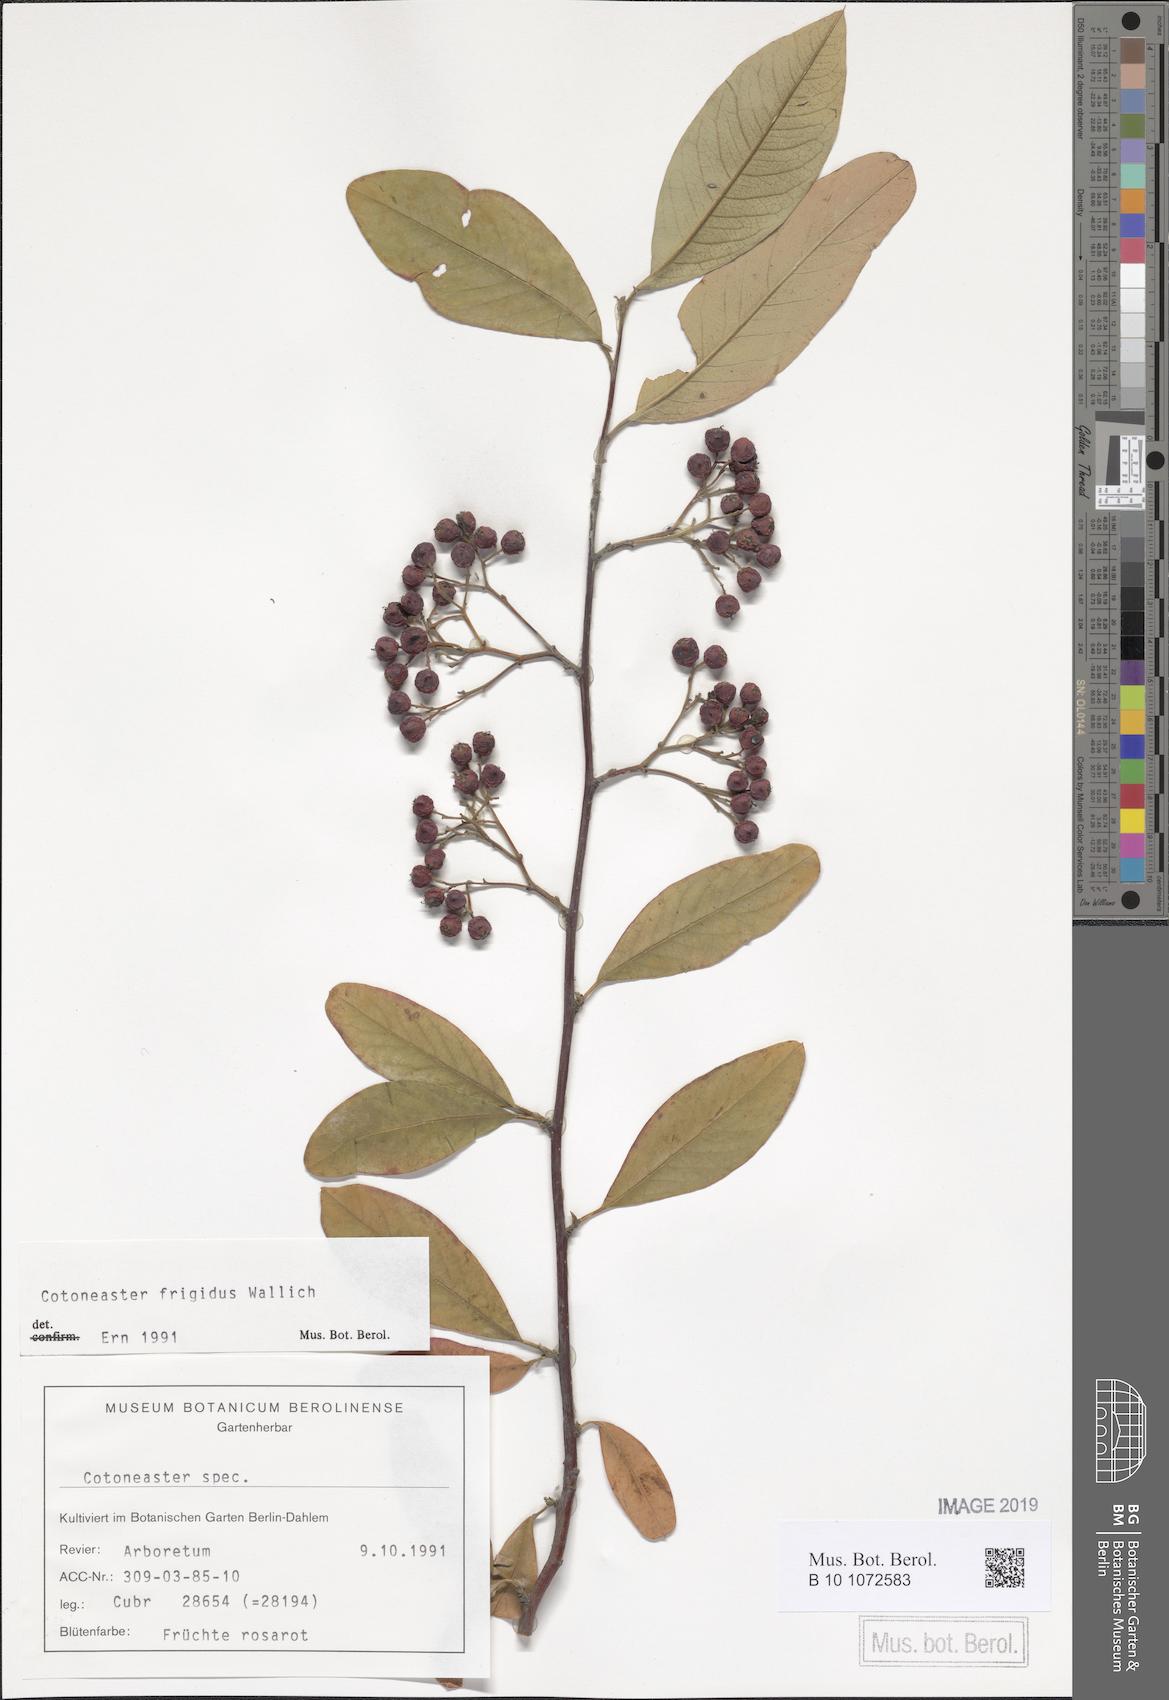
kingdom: Plantae
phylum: Tracheophyta
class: Magnoliopsida
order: Rosales
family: Rosaceae
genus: Cotoneaster
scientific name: Cotoneaster frigidus
